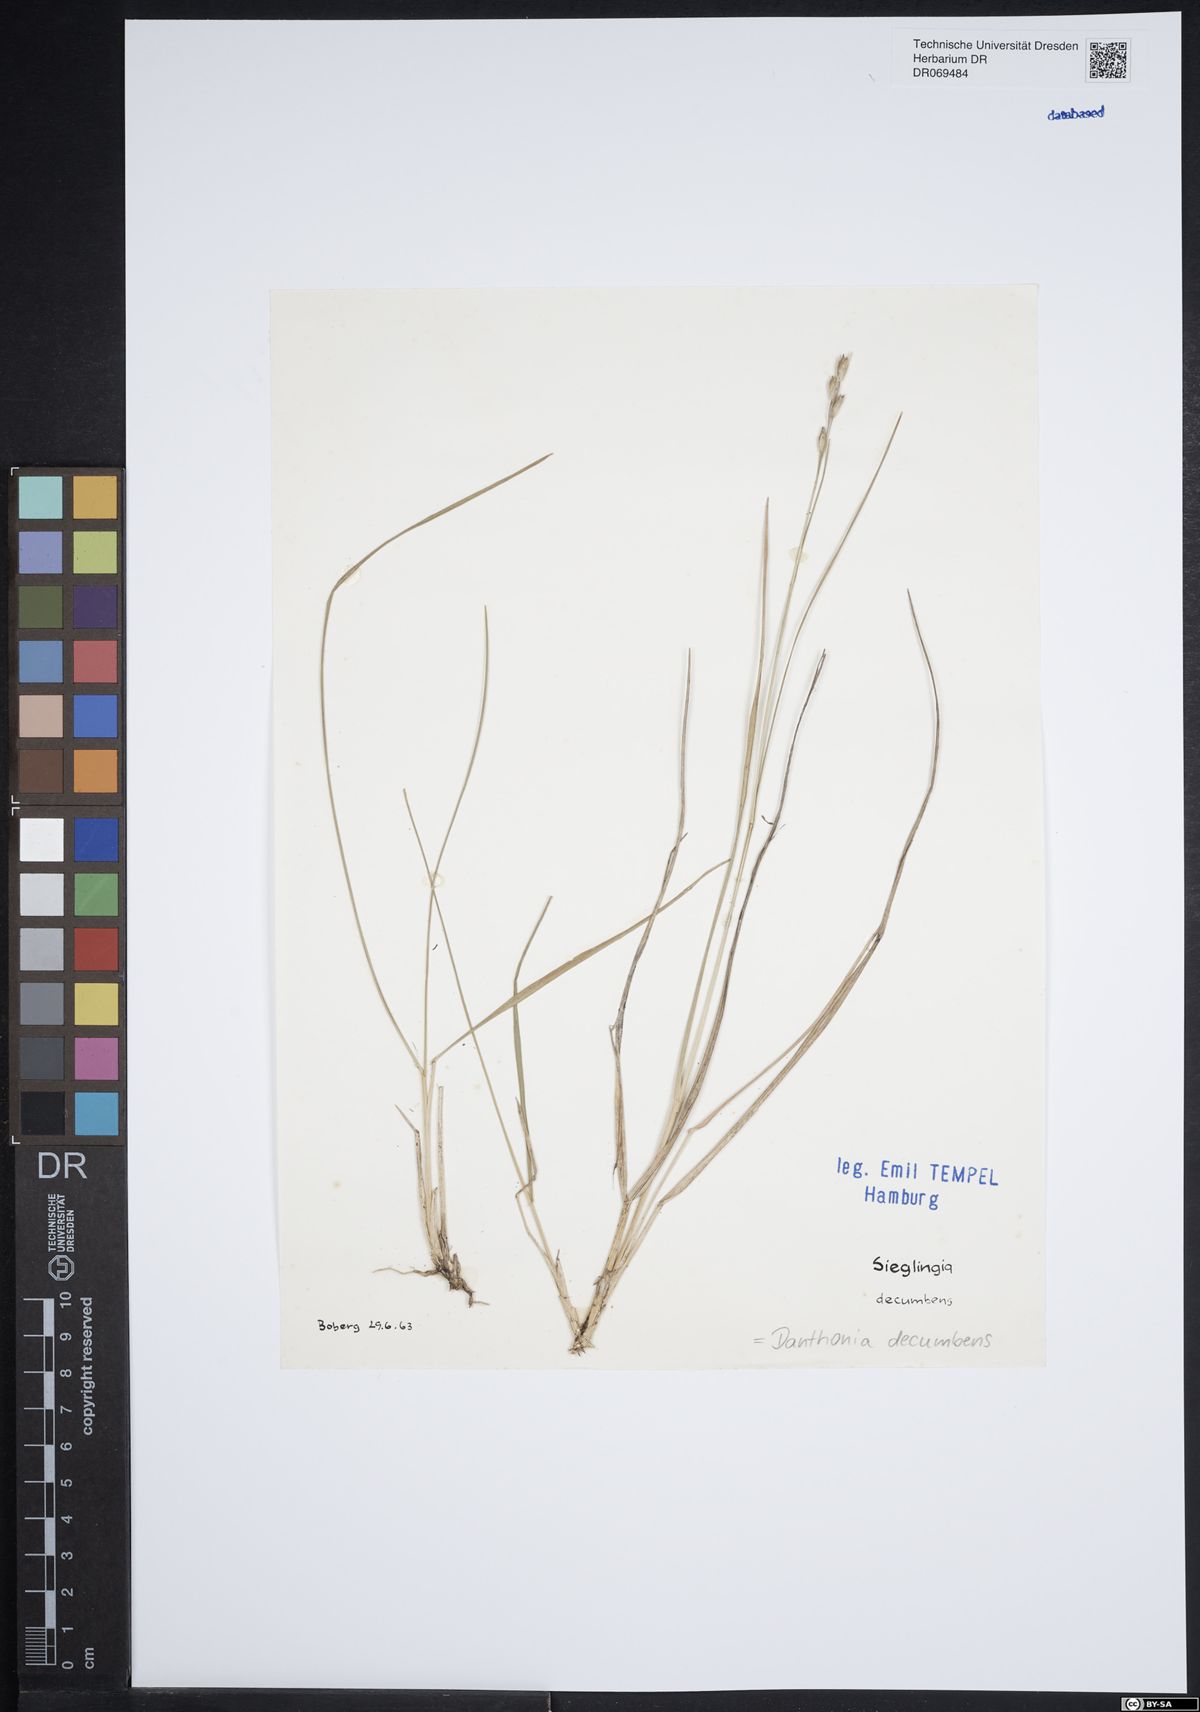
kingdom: Plantae
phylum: Tracheophyta
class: Liliopsida
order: Poales
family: Poaceae
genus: Danthonia
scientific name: Danthonia decumbens
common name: Common heathgrass
